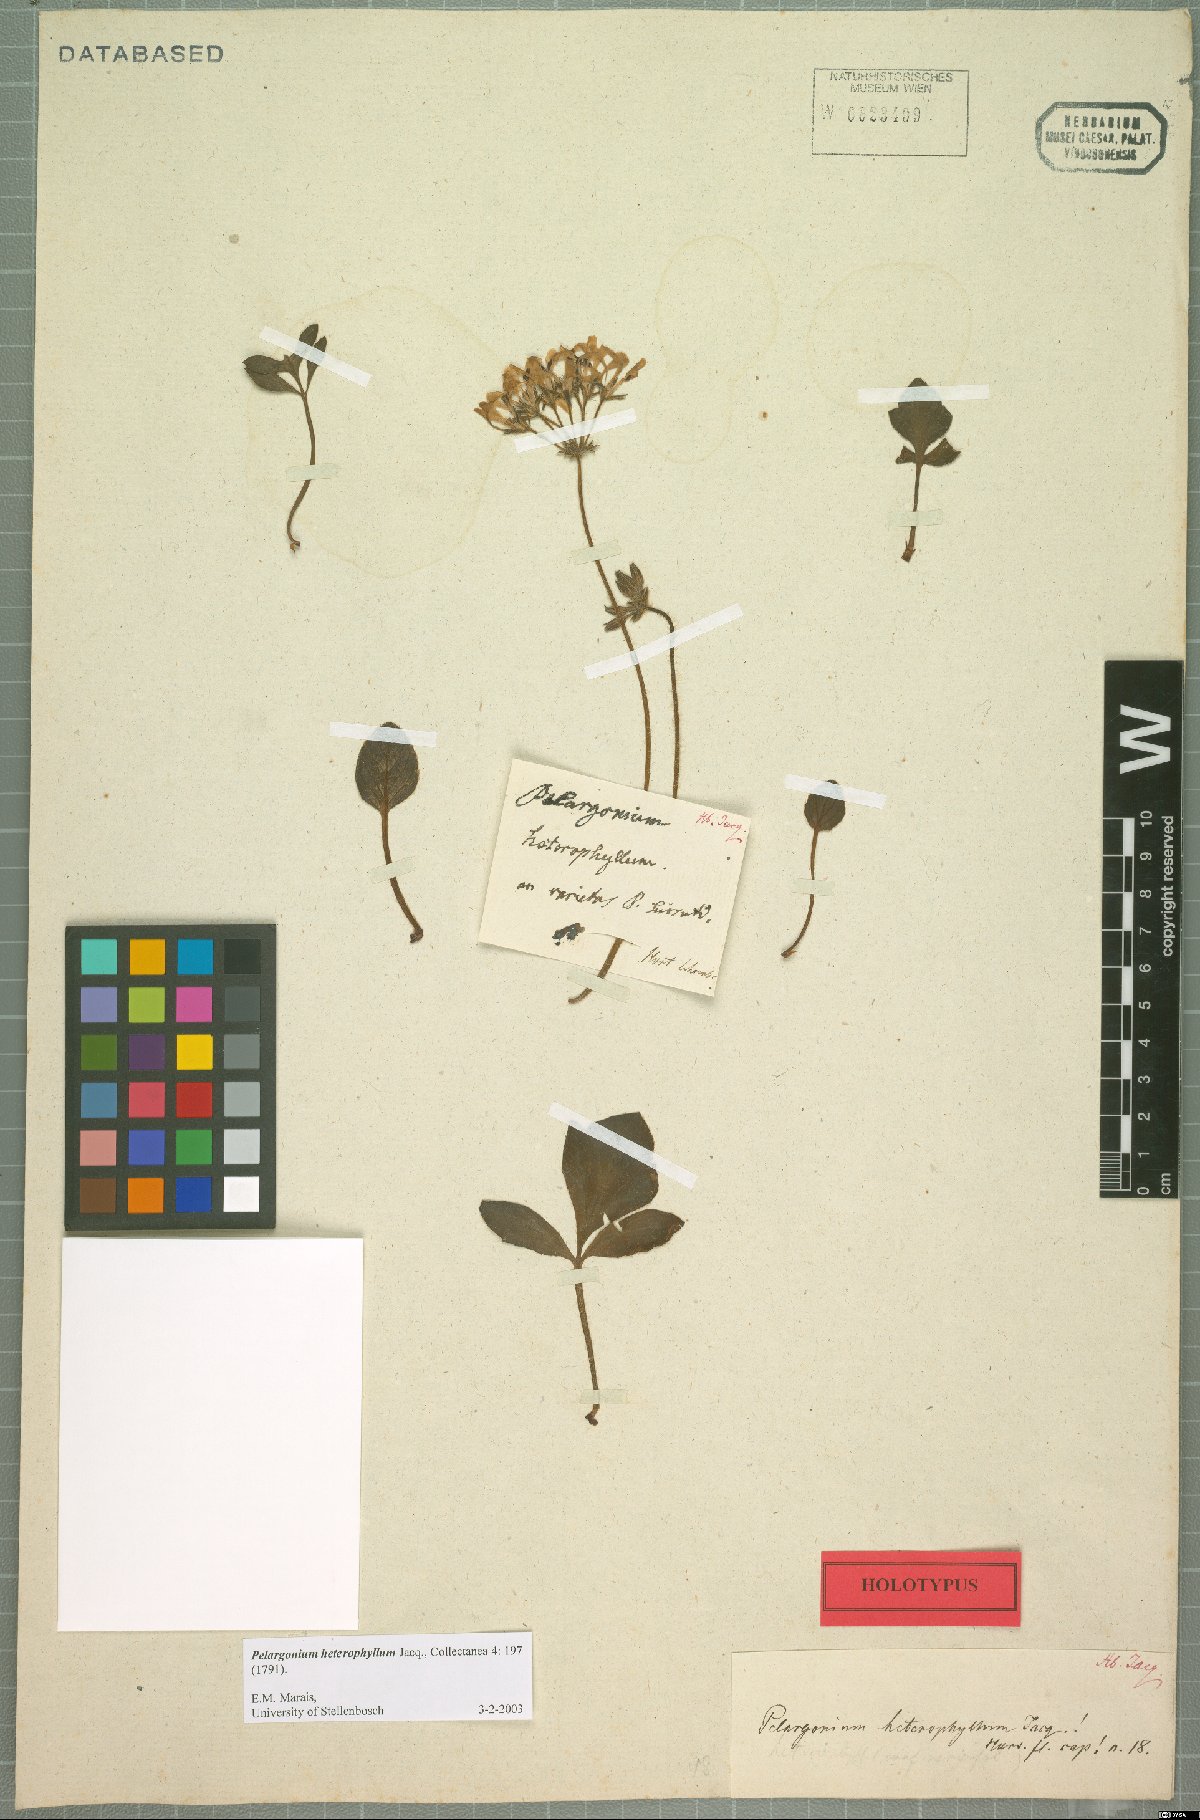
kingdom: Plantae
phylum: Tracheophyta
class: Magnoliopsida
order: Geraniales
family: Geraniaceae
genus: Pelargonium
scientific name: Pelargonium heterophyllum
